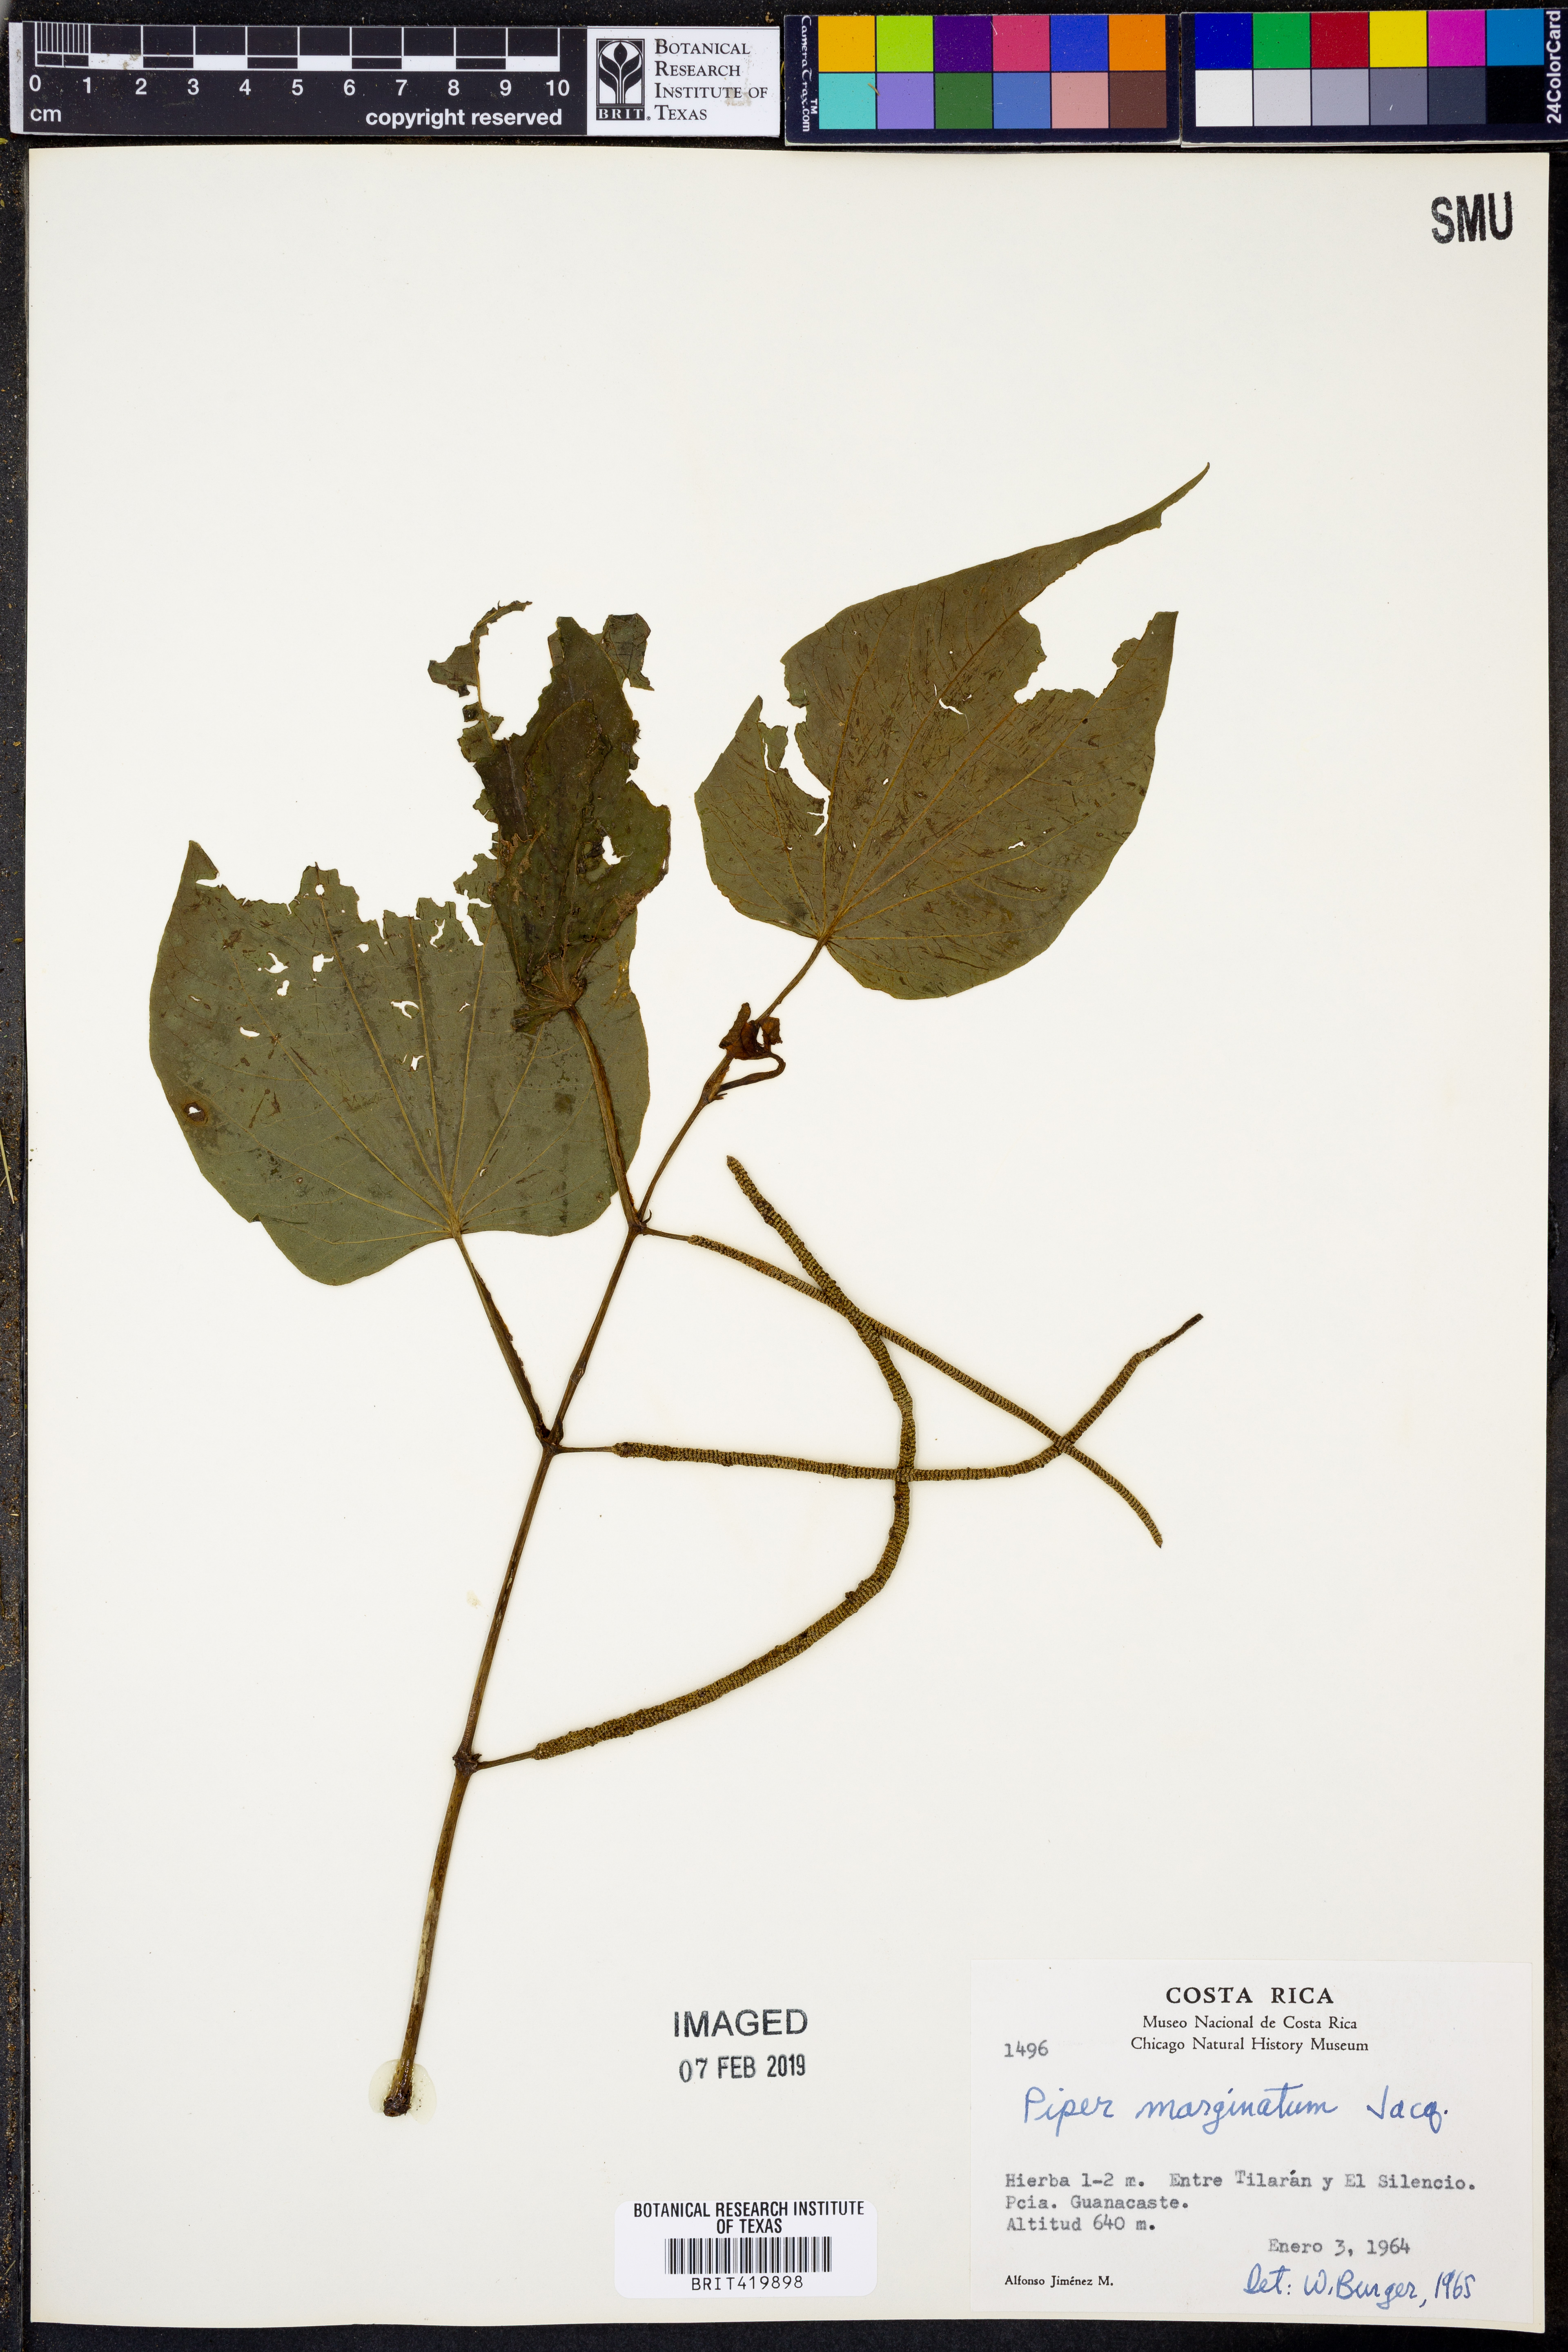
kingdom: Plantae
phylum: Tracheophyta
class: Magnoliopsida
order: Piperales
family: Piperaceae
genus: Piper
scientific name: Piper marginatum
